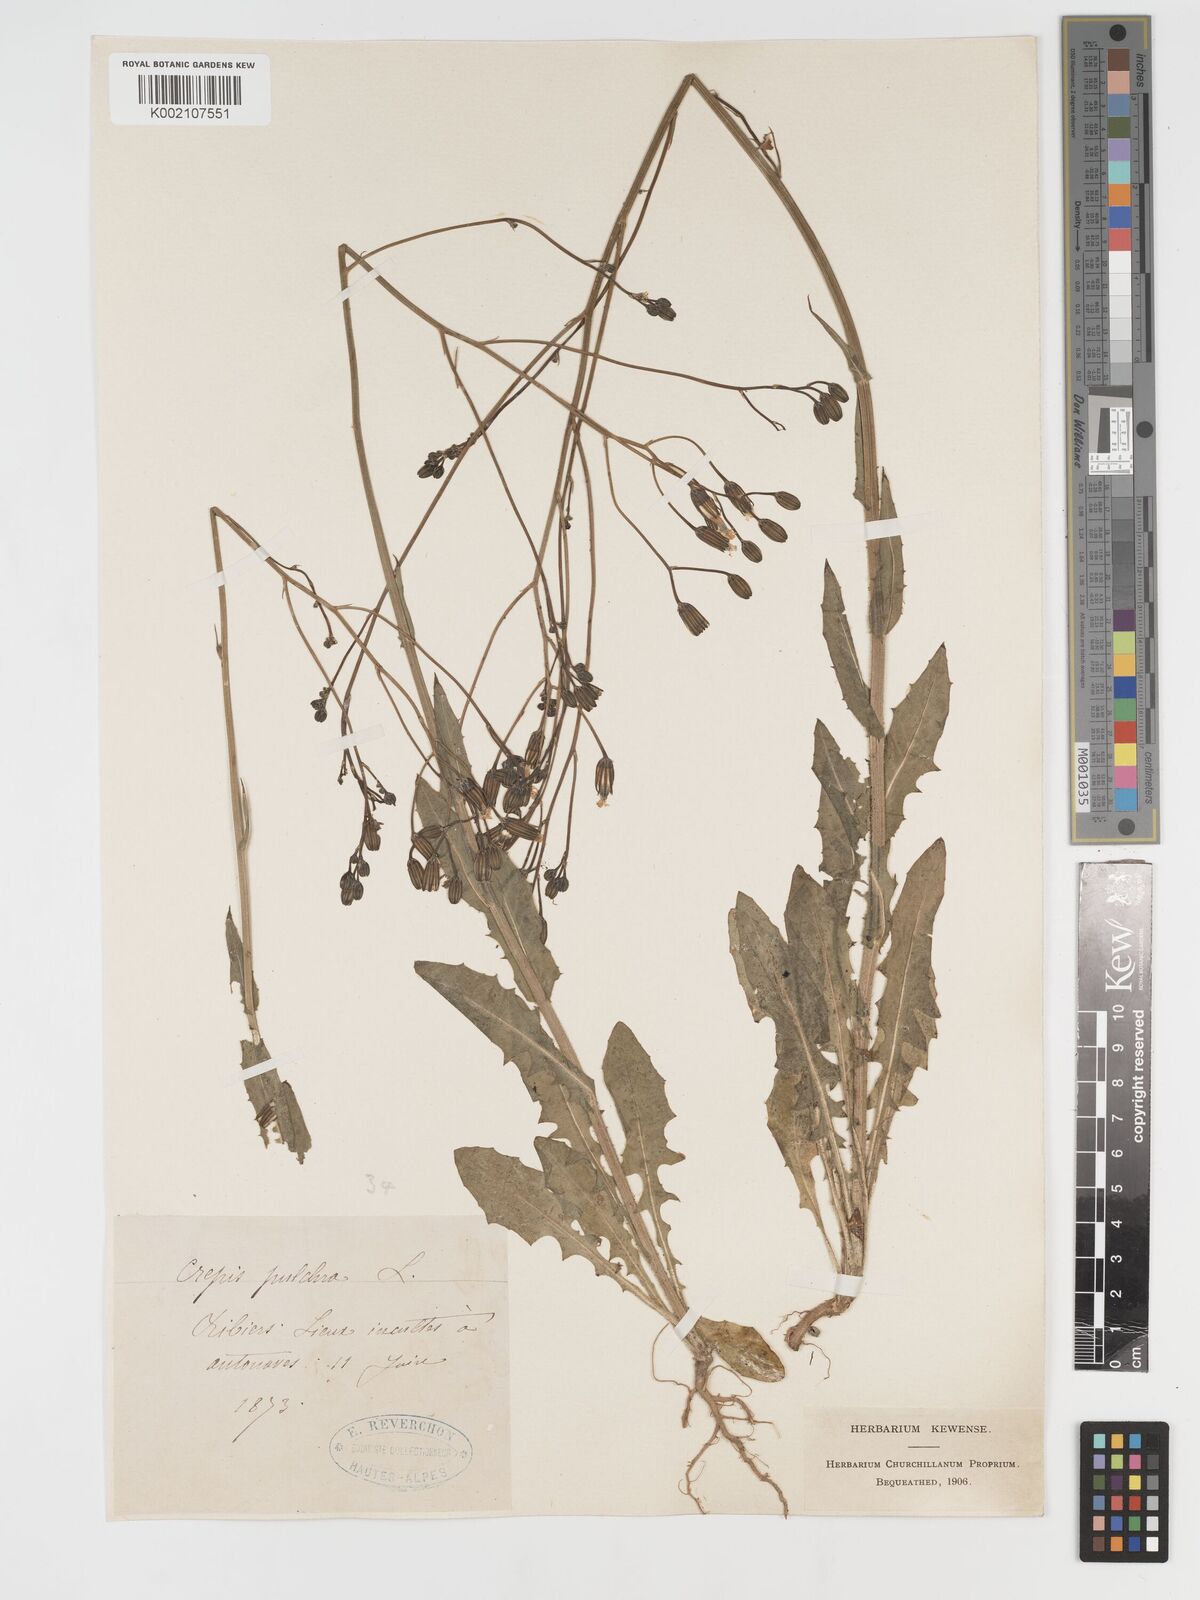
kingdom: Plantae
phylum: Tracheophyta
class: Magnoliopsida
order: Asterales
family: Asteraceae
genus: Crepis
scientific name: Crepis pulchra
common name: Hawk's-beard
